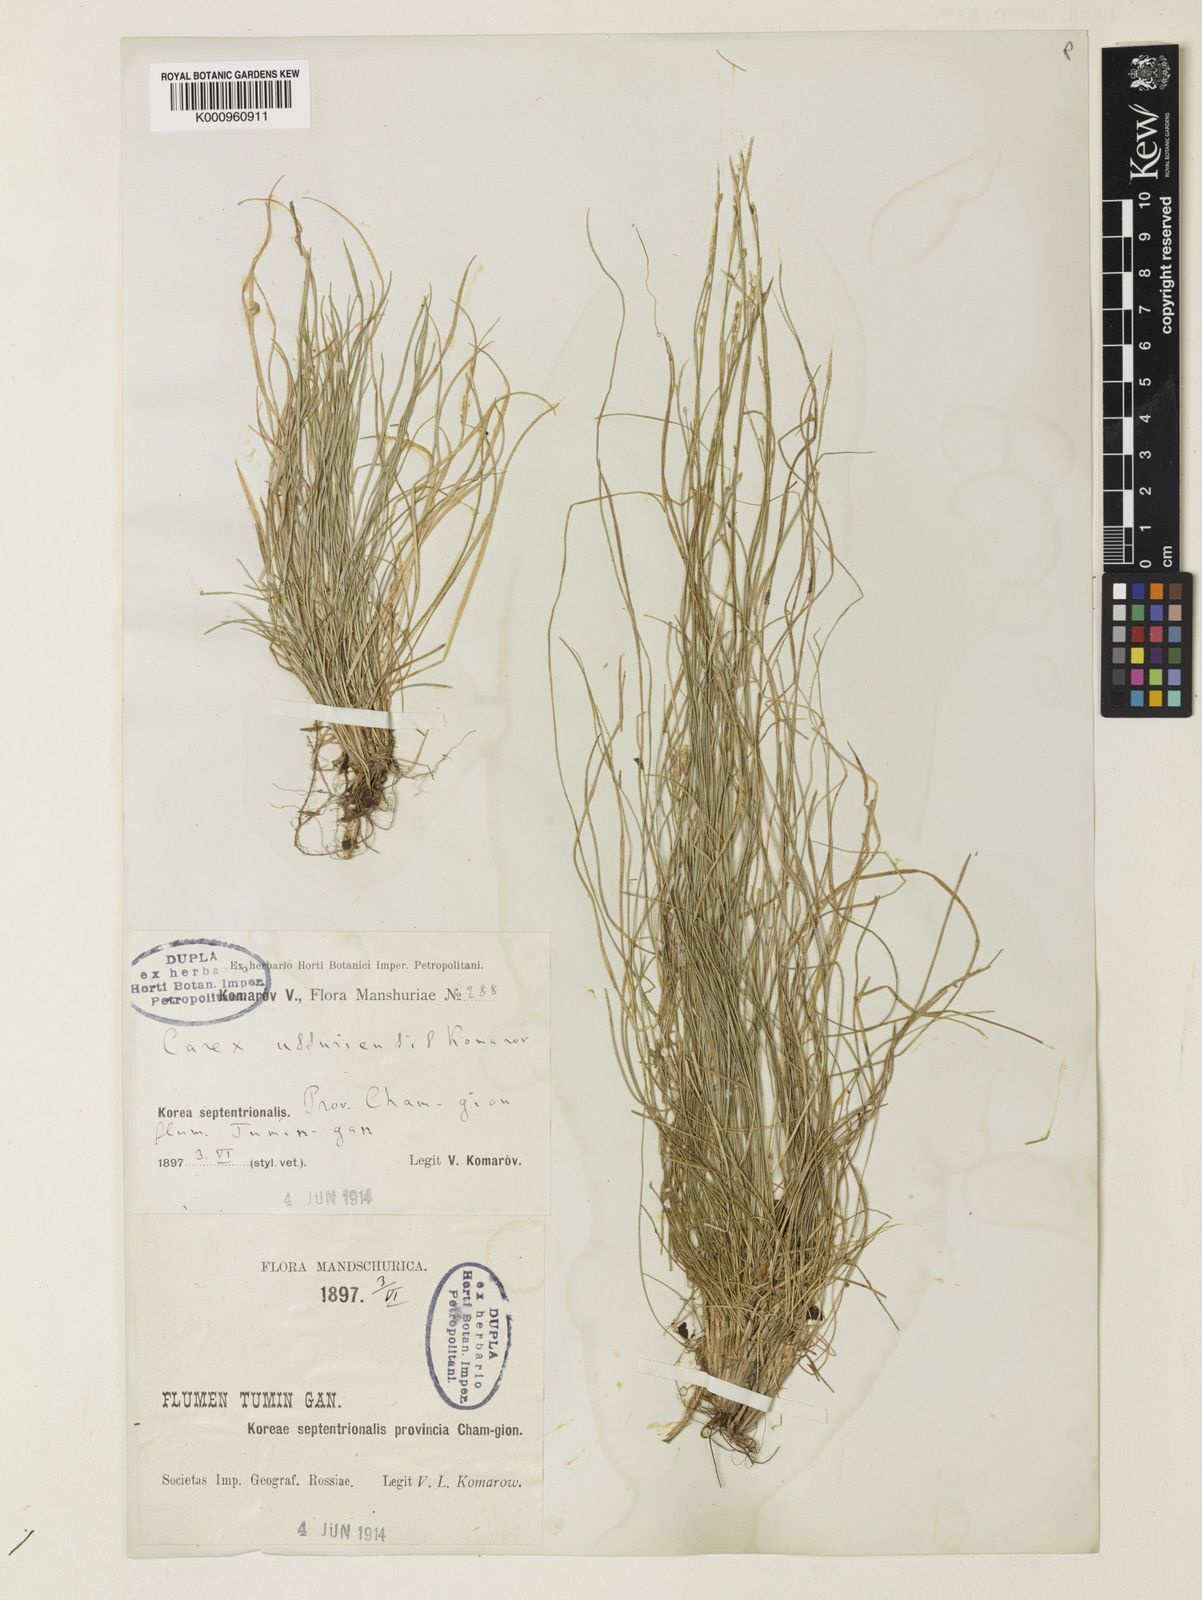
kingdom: Plantae
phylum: Tracheophyta
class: Liliopsida
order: Poales
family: Cyperaceae
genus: Carex
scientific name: Carex alba
